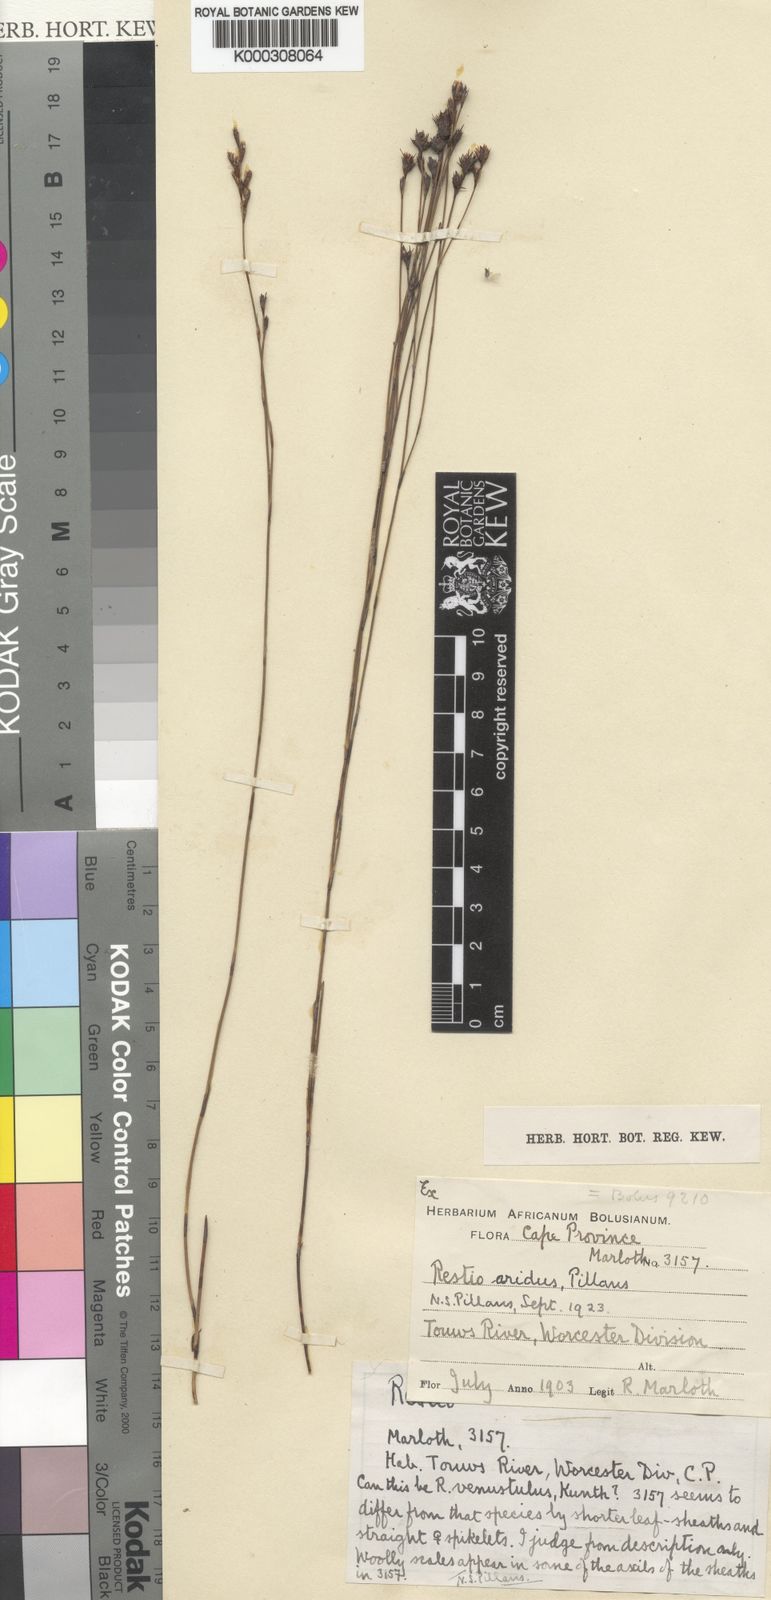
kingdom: Plantae
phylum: Tracheophyta
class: Liliopsida
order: Poales
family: Restionaceae
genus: Restio
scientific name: Restio aridus
